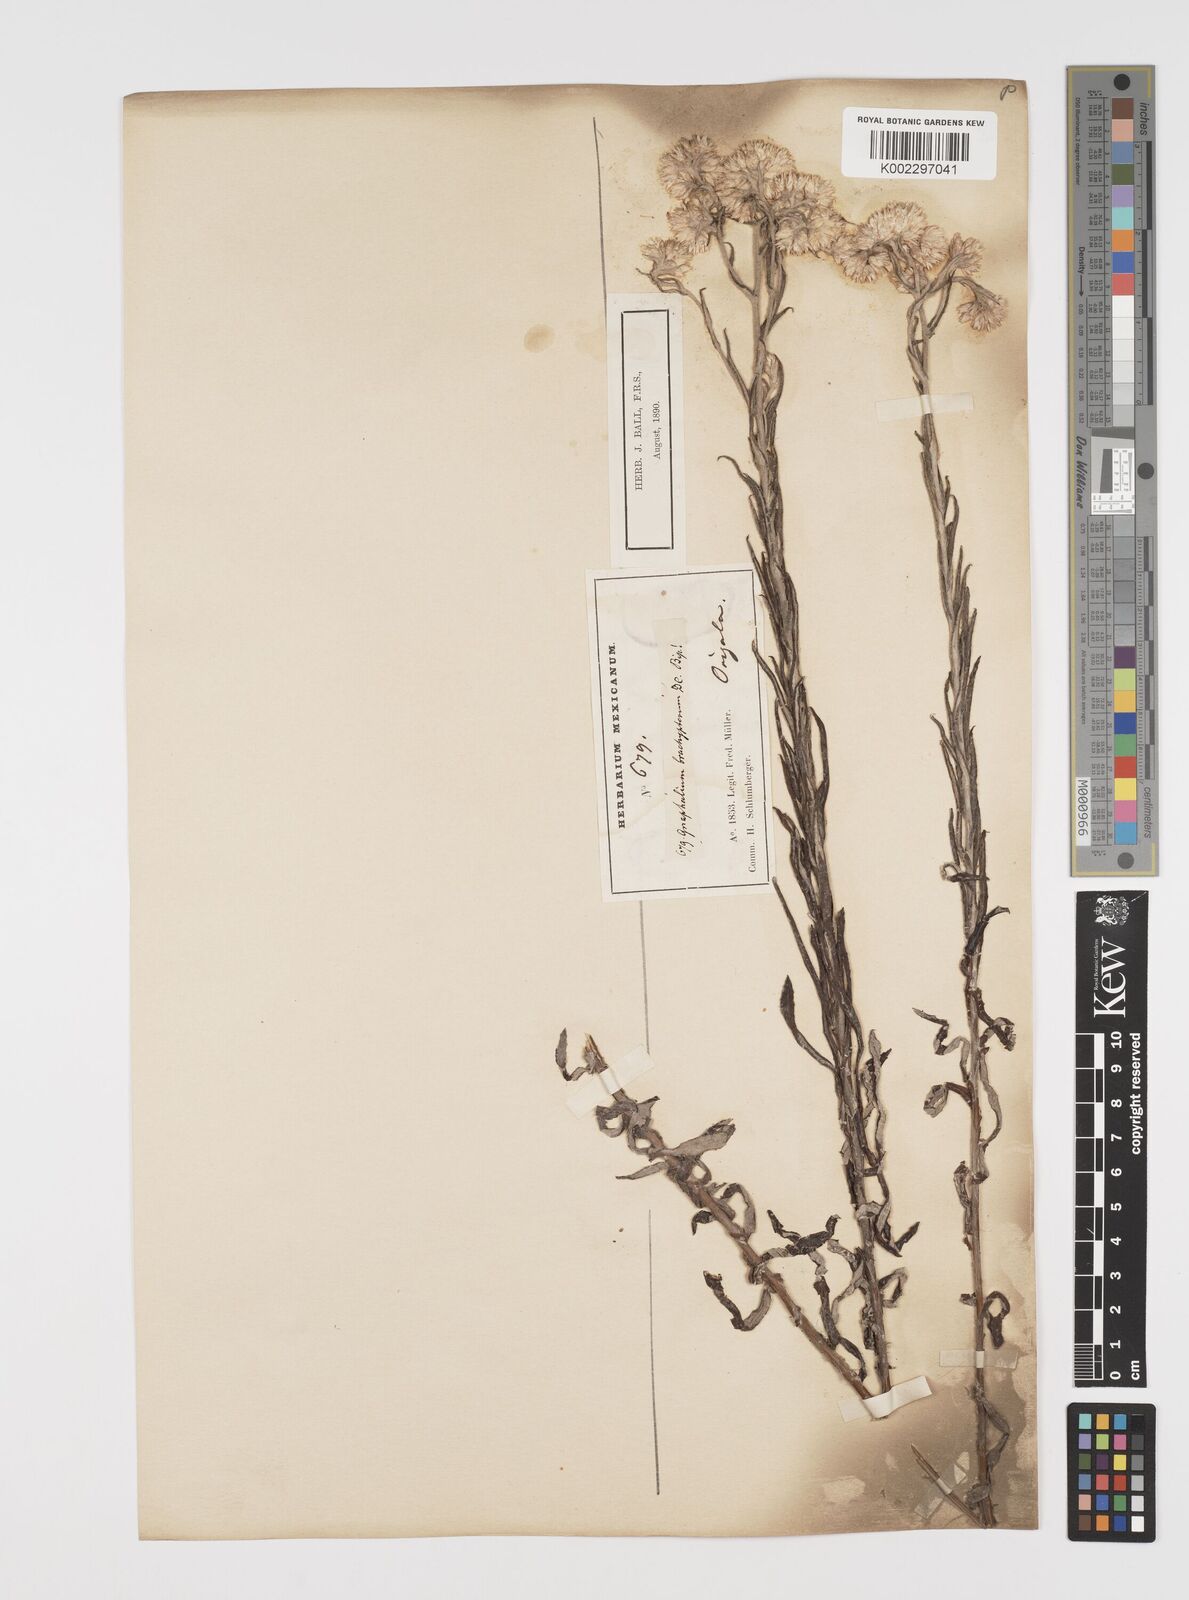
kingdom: Plantae
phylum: Tracheophyta
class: Magnoliopsida
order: Asterales
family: Asteraceae
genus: Pseudognaphalium
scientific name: Pseudognaphalium brachypterum
